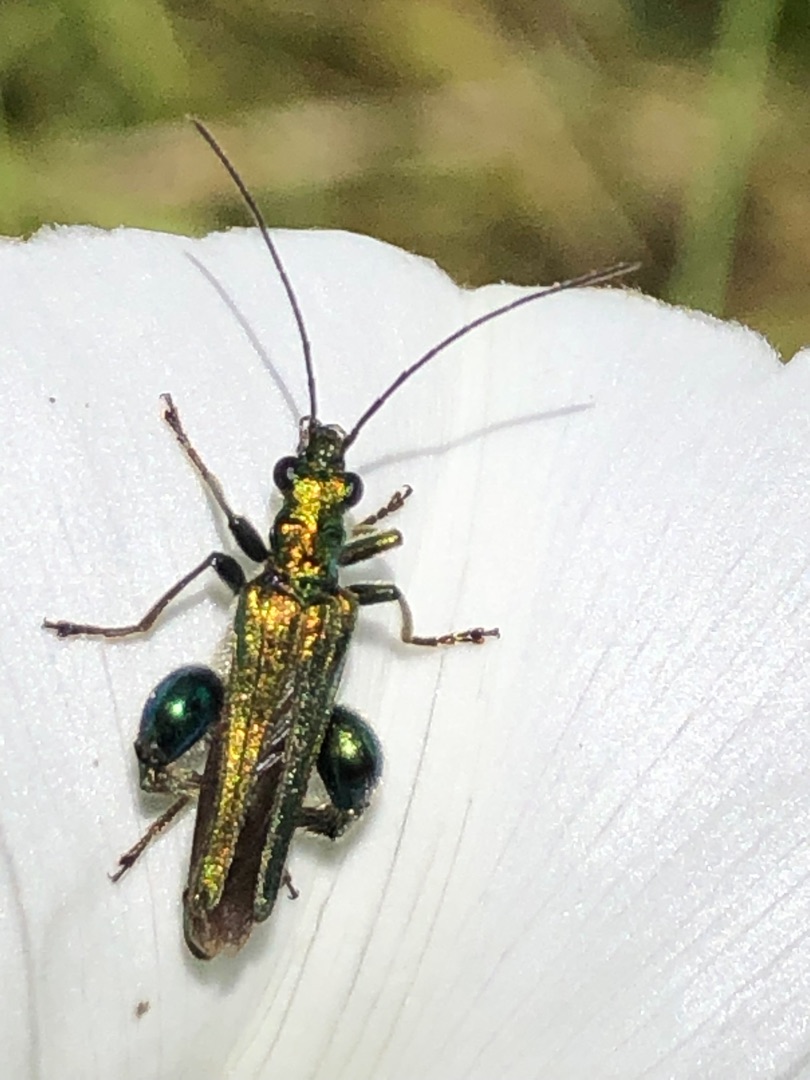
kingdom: Animalia
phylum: Arthropoda
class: Insecta
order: Coleoptera
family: Oedemeridae
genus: Oedemera
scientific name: Oedemera nobilis
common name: Tyklårssolbille
